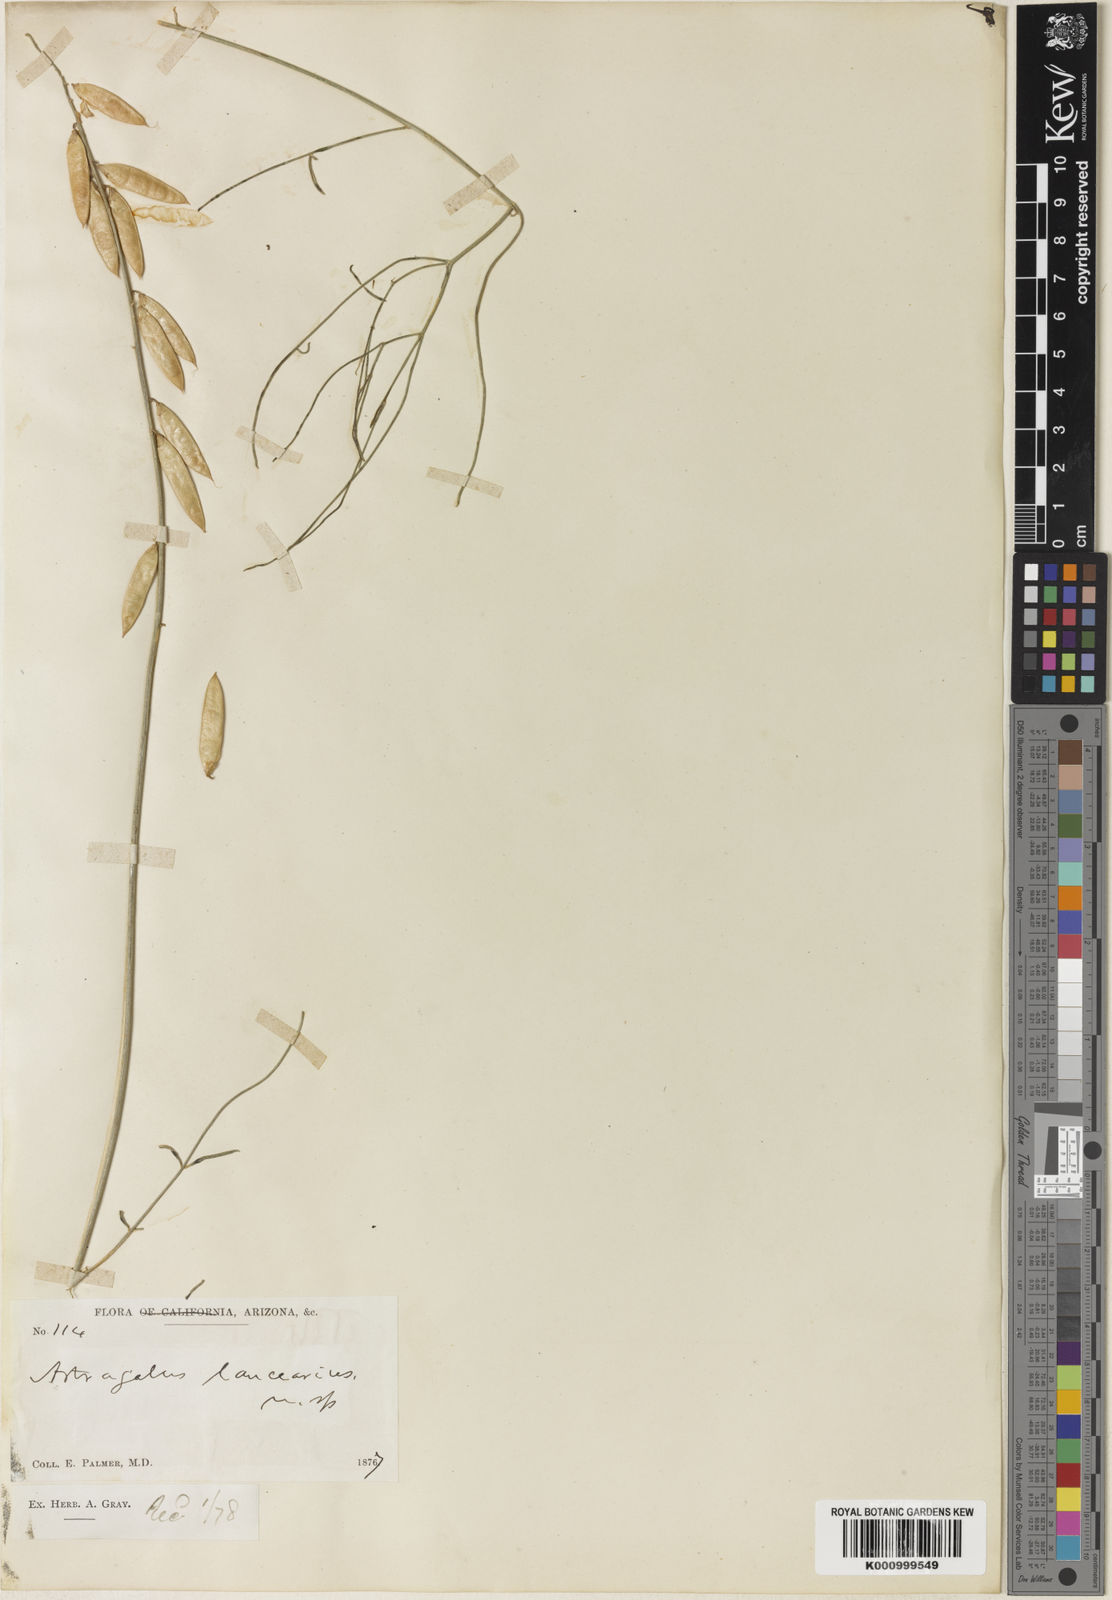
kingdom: Plantae
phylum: Tracheophyta
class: Magnoliopsida
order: Fabales
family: Fabaceae
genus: Astragalus
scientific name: Astragalus episcopus
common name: Bishop's milk-vetch
